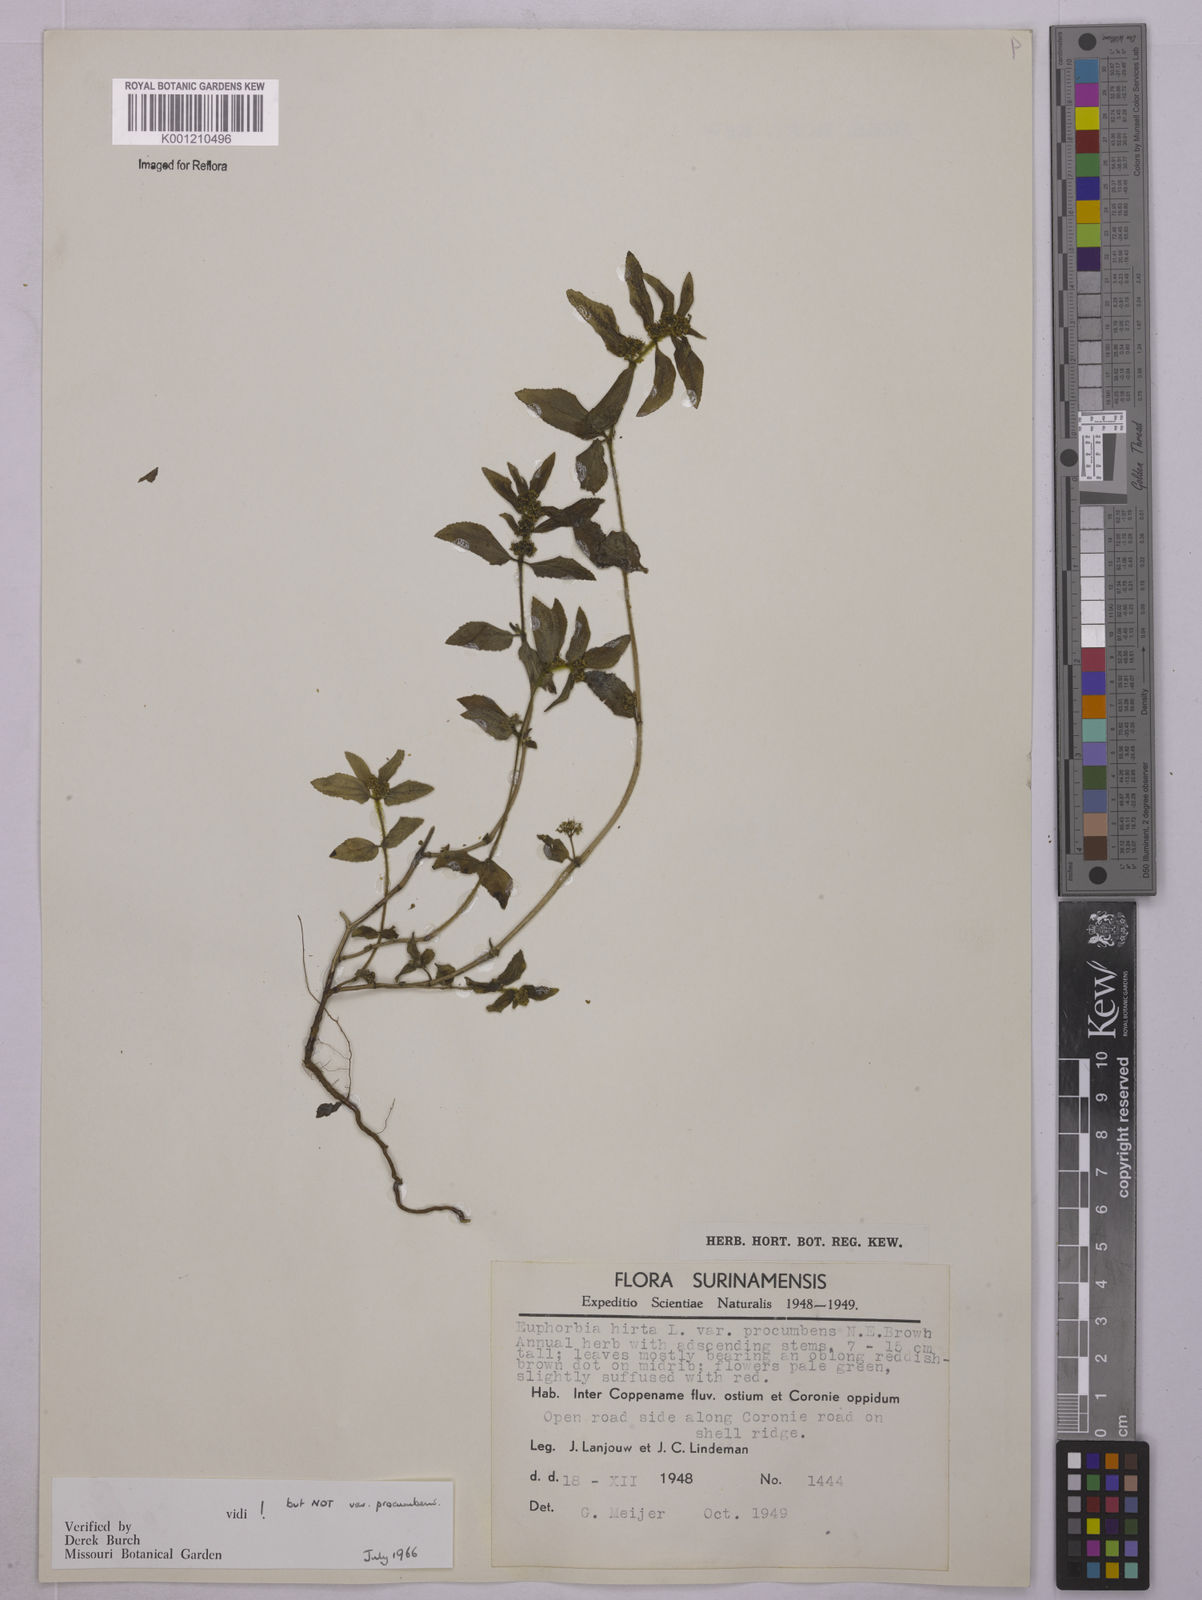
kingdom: Plantae
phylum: Tracheophyta
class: Magnoliopsida
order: Malpighiales
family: Euphorbiaceae
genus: Euphorbia
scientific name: Euphorbia hirta
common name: Pillpod sandmat
